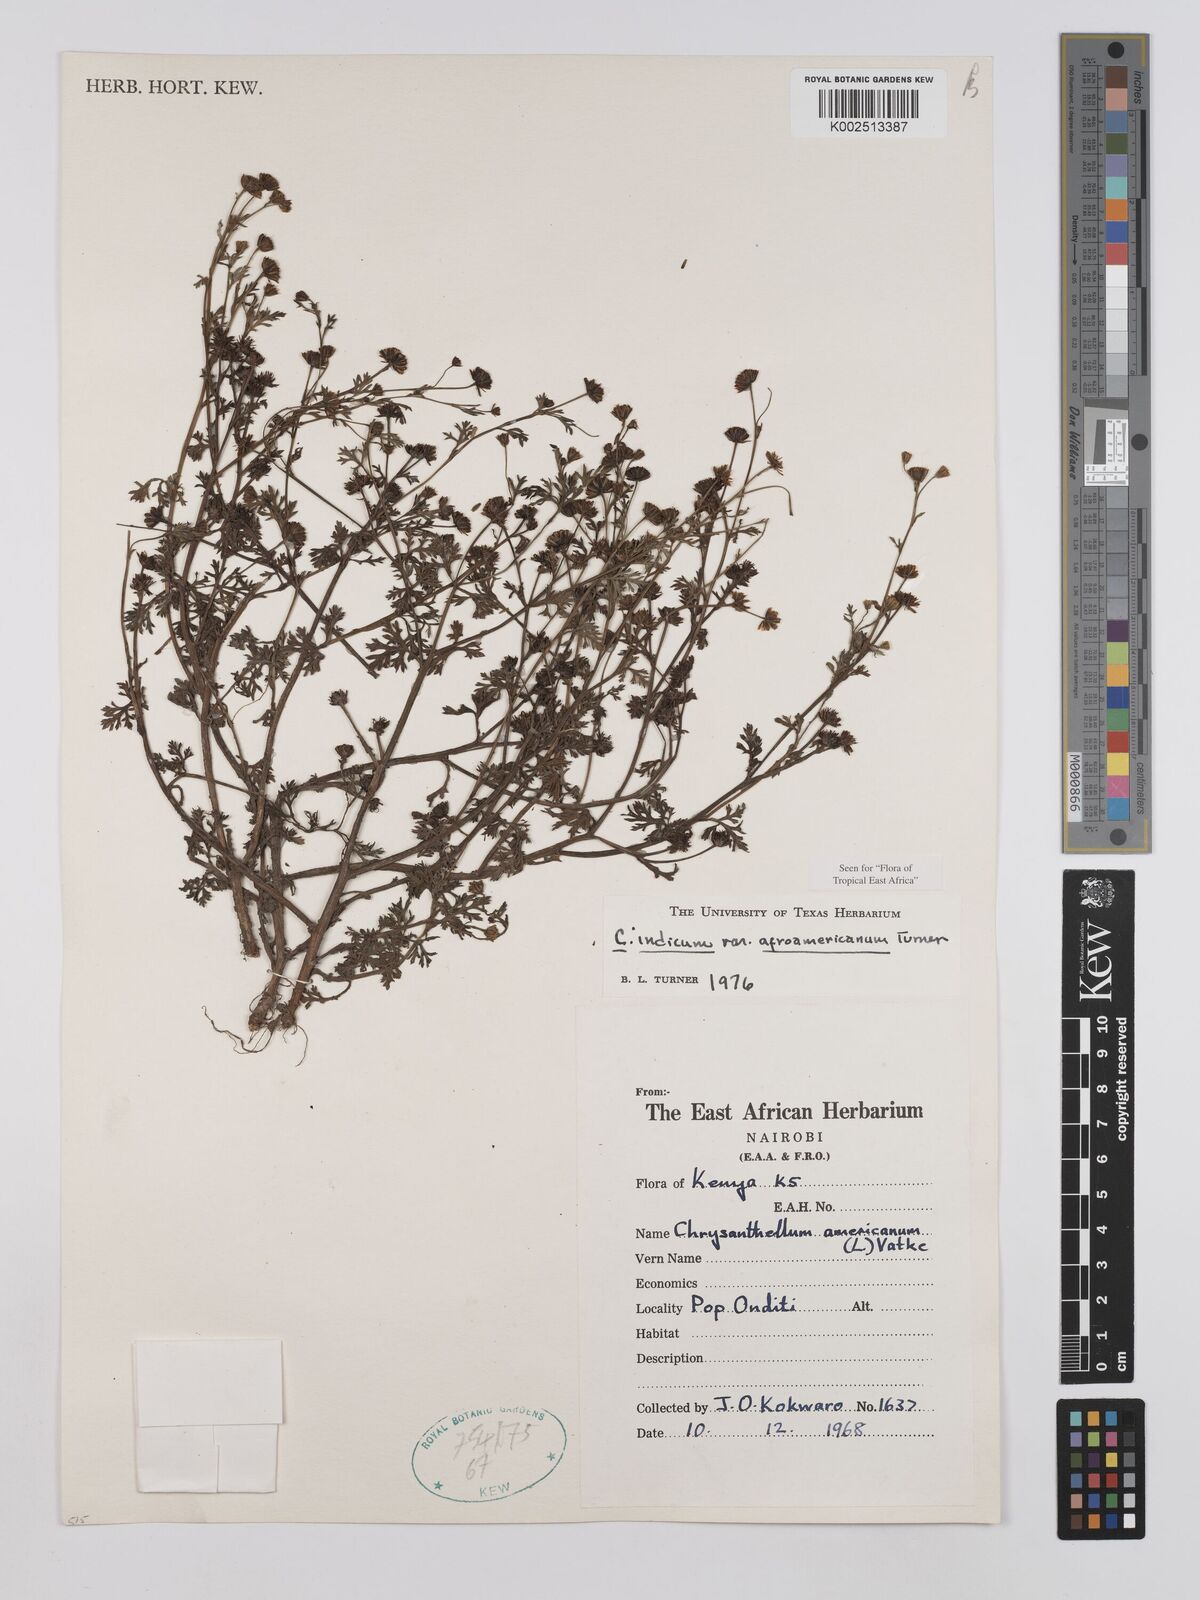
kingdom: Plantae
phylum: Tracheophyta
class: Magnoliopsida
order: Asterales
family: Asteraceae
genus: Chrysanthellum
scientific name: Chrysanthellum indicum
